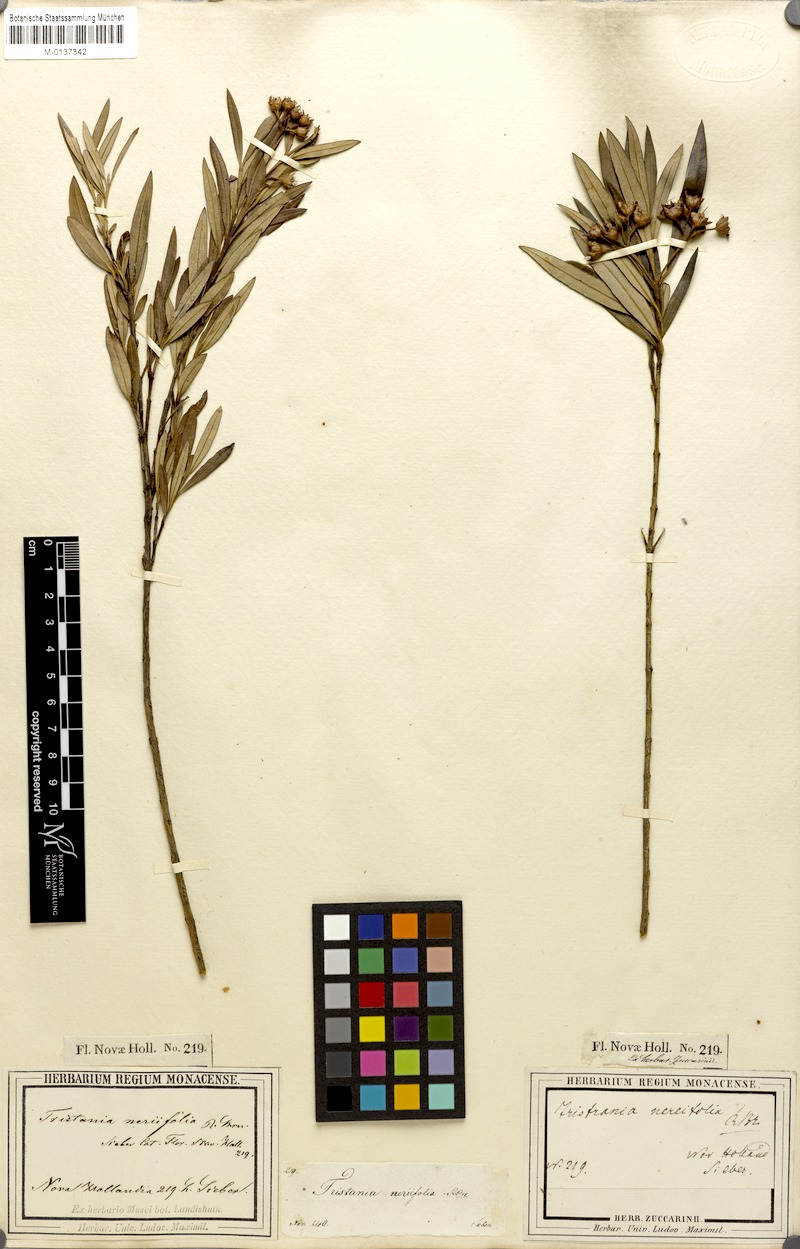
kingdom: Plantae
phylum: Tracheophyta
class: Magnoliopsida
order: Myrtales
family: Myrtaceae
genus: Tristania
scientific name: Tristania neriifolia
